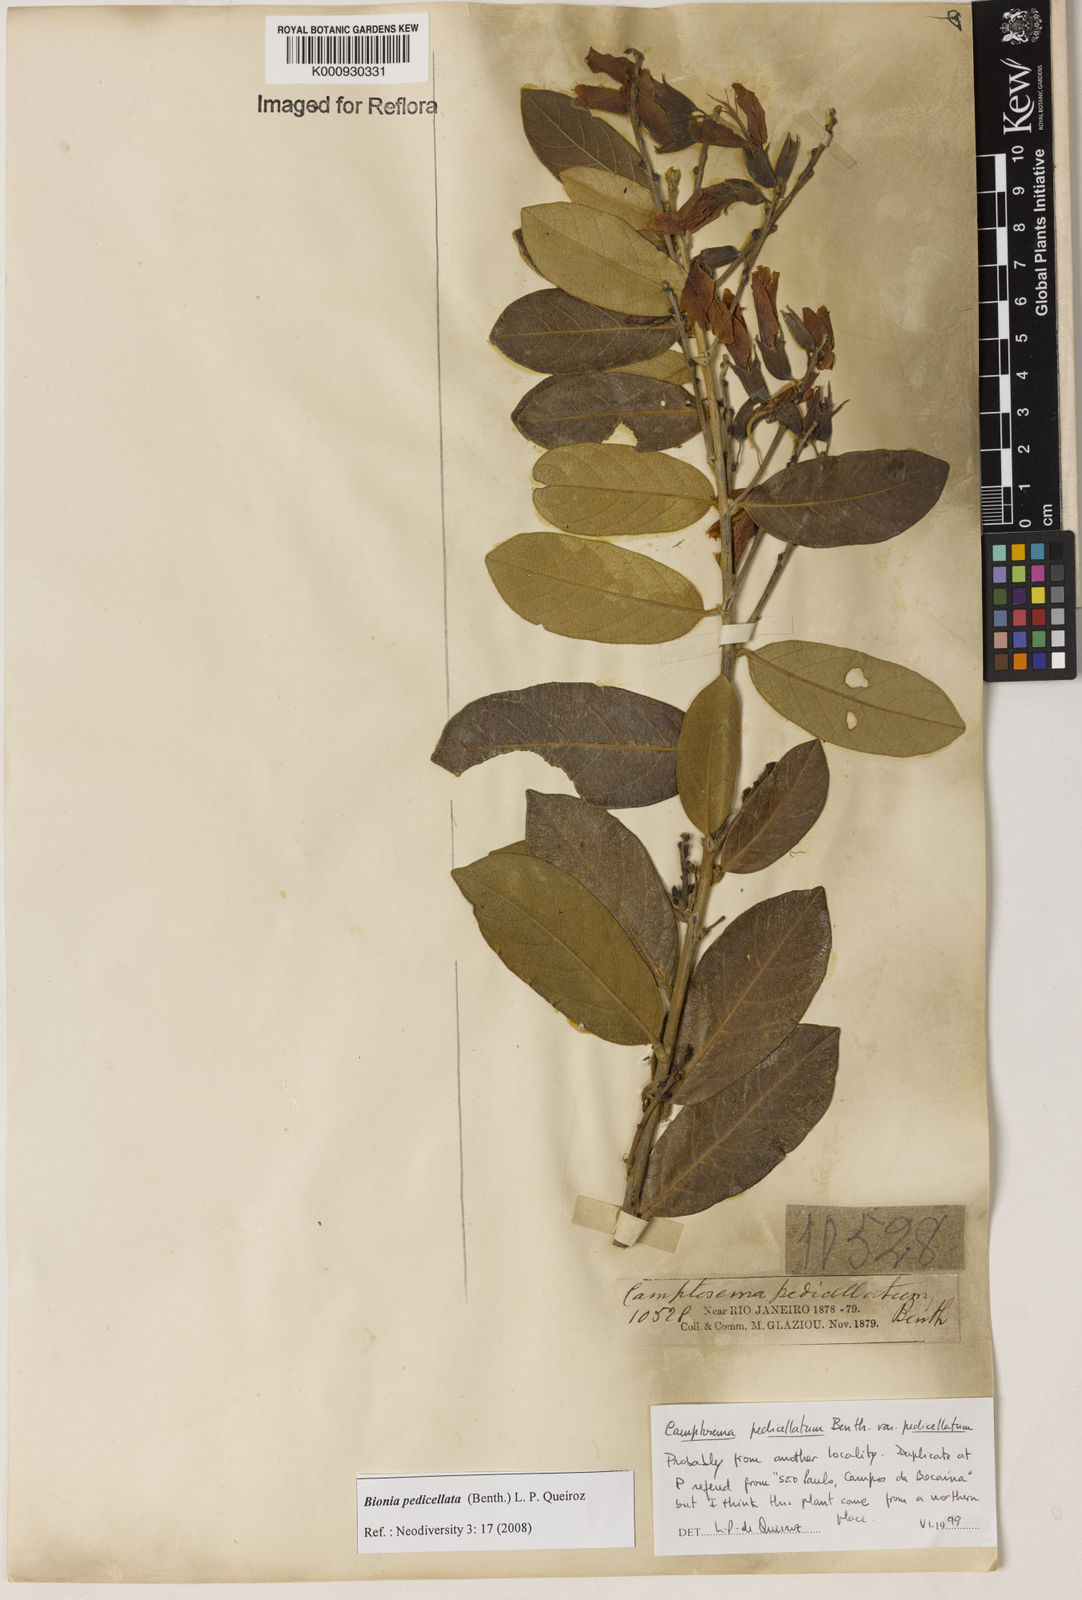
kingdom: Plantae
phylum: Tracheophyta
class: Magnoliopsida
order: Fabales
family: Fabaceae
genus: Camptosema
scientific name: Camptosema
